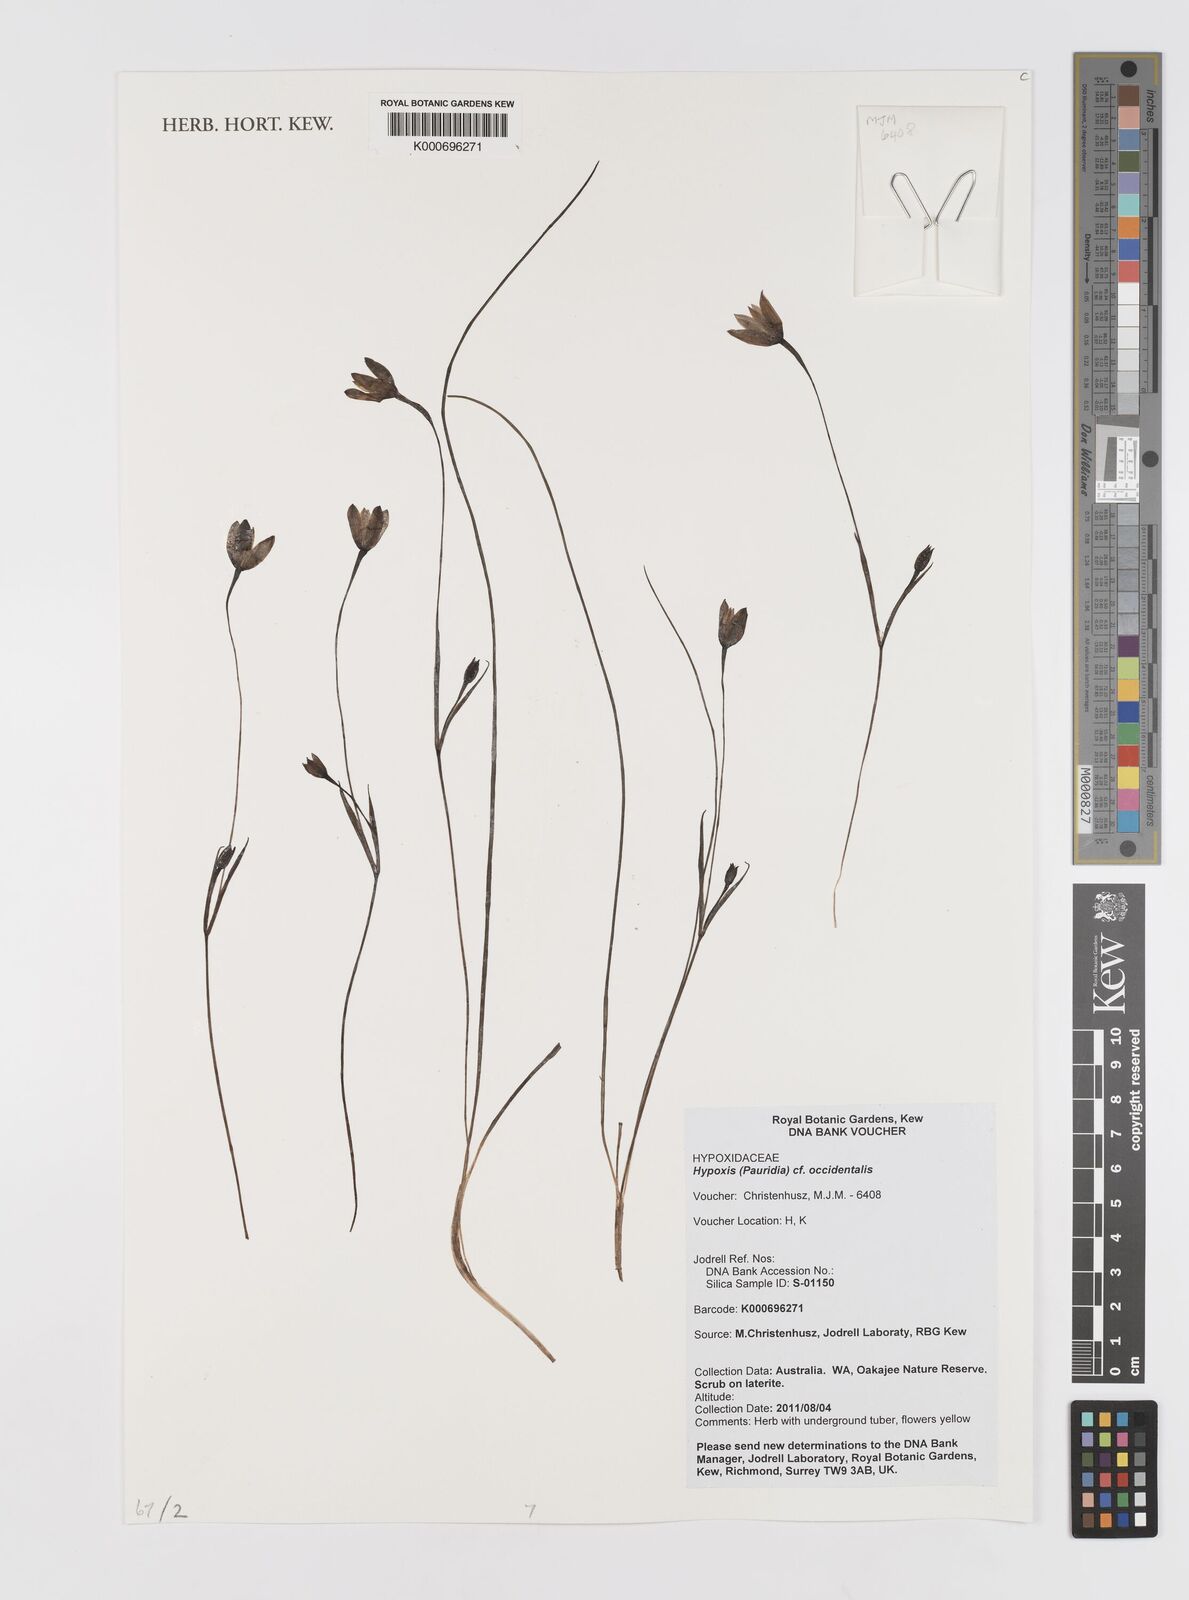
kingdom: Plantae
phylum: Tracheophyta
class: Liliopsida
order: Asparagales
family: Hypoxidaceae
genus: Pauridia
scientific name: Pauridia occidentalis
